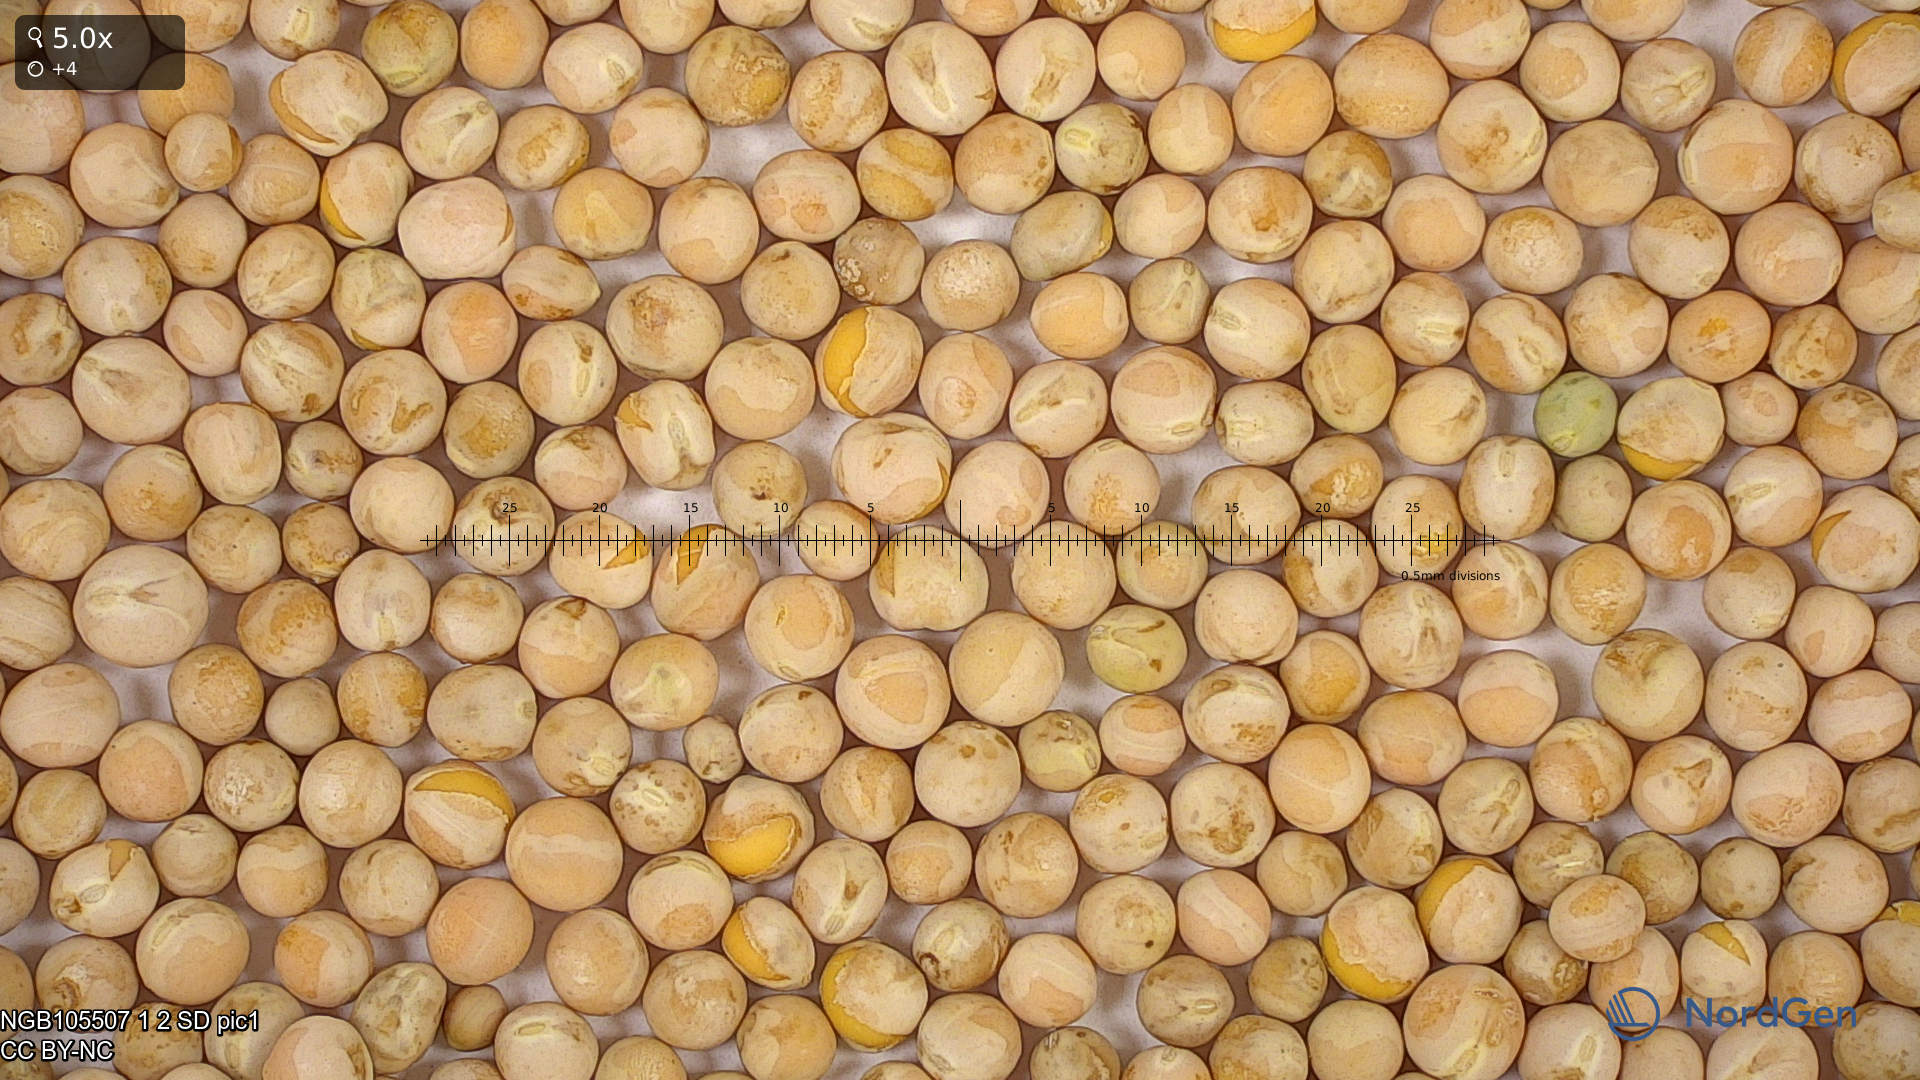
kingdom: Plantae
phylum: Tracheophyta
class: Magnoliopsida
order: Fabales
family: Fabaceae
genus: Lathyrus
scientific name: Lathyrus oleraceus
